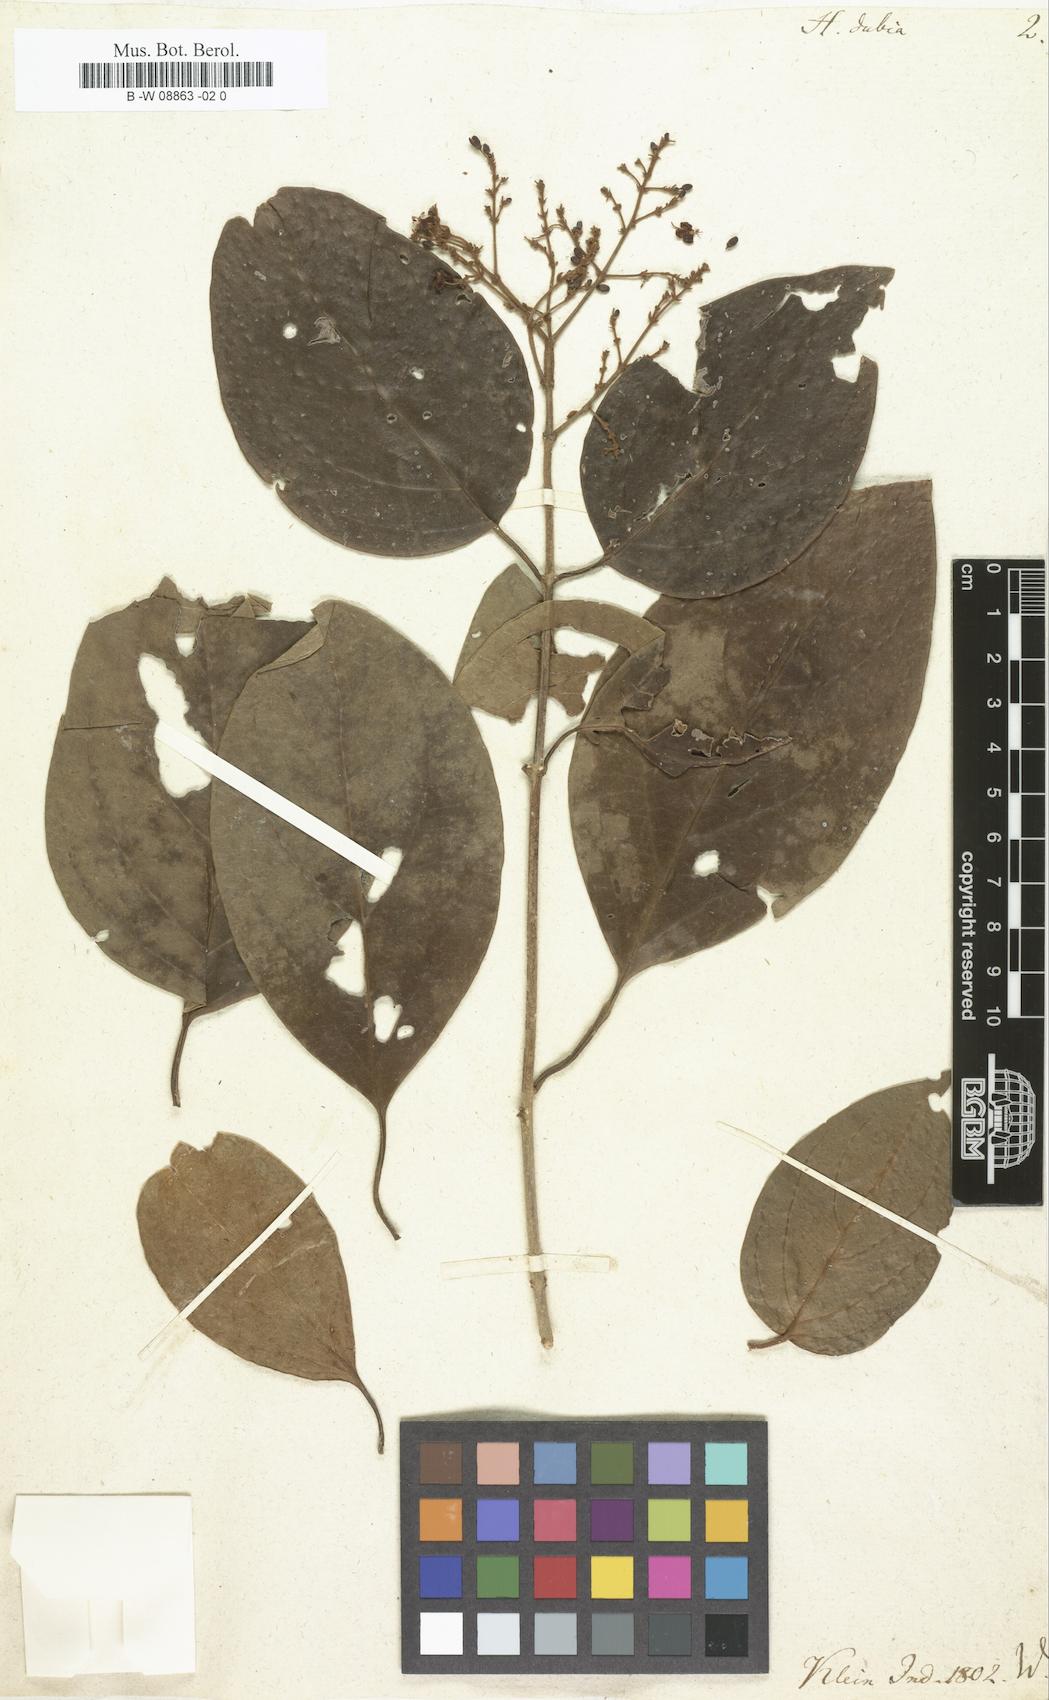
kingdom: Plantae
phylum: Tracheophyta
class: Magnoliopsida
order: Malpighiales
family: Malpighiaceae
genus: Hiraea
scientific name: Hiraea
